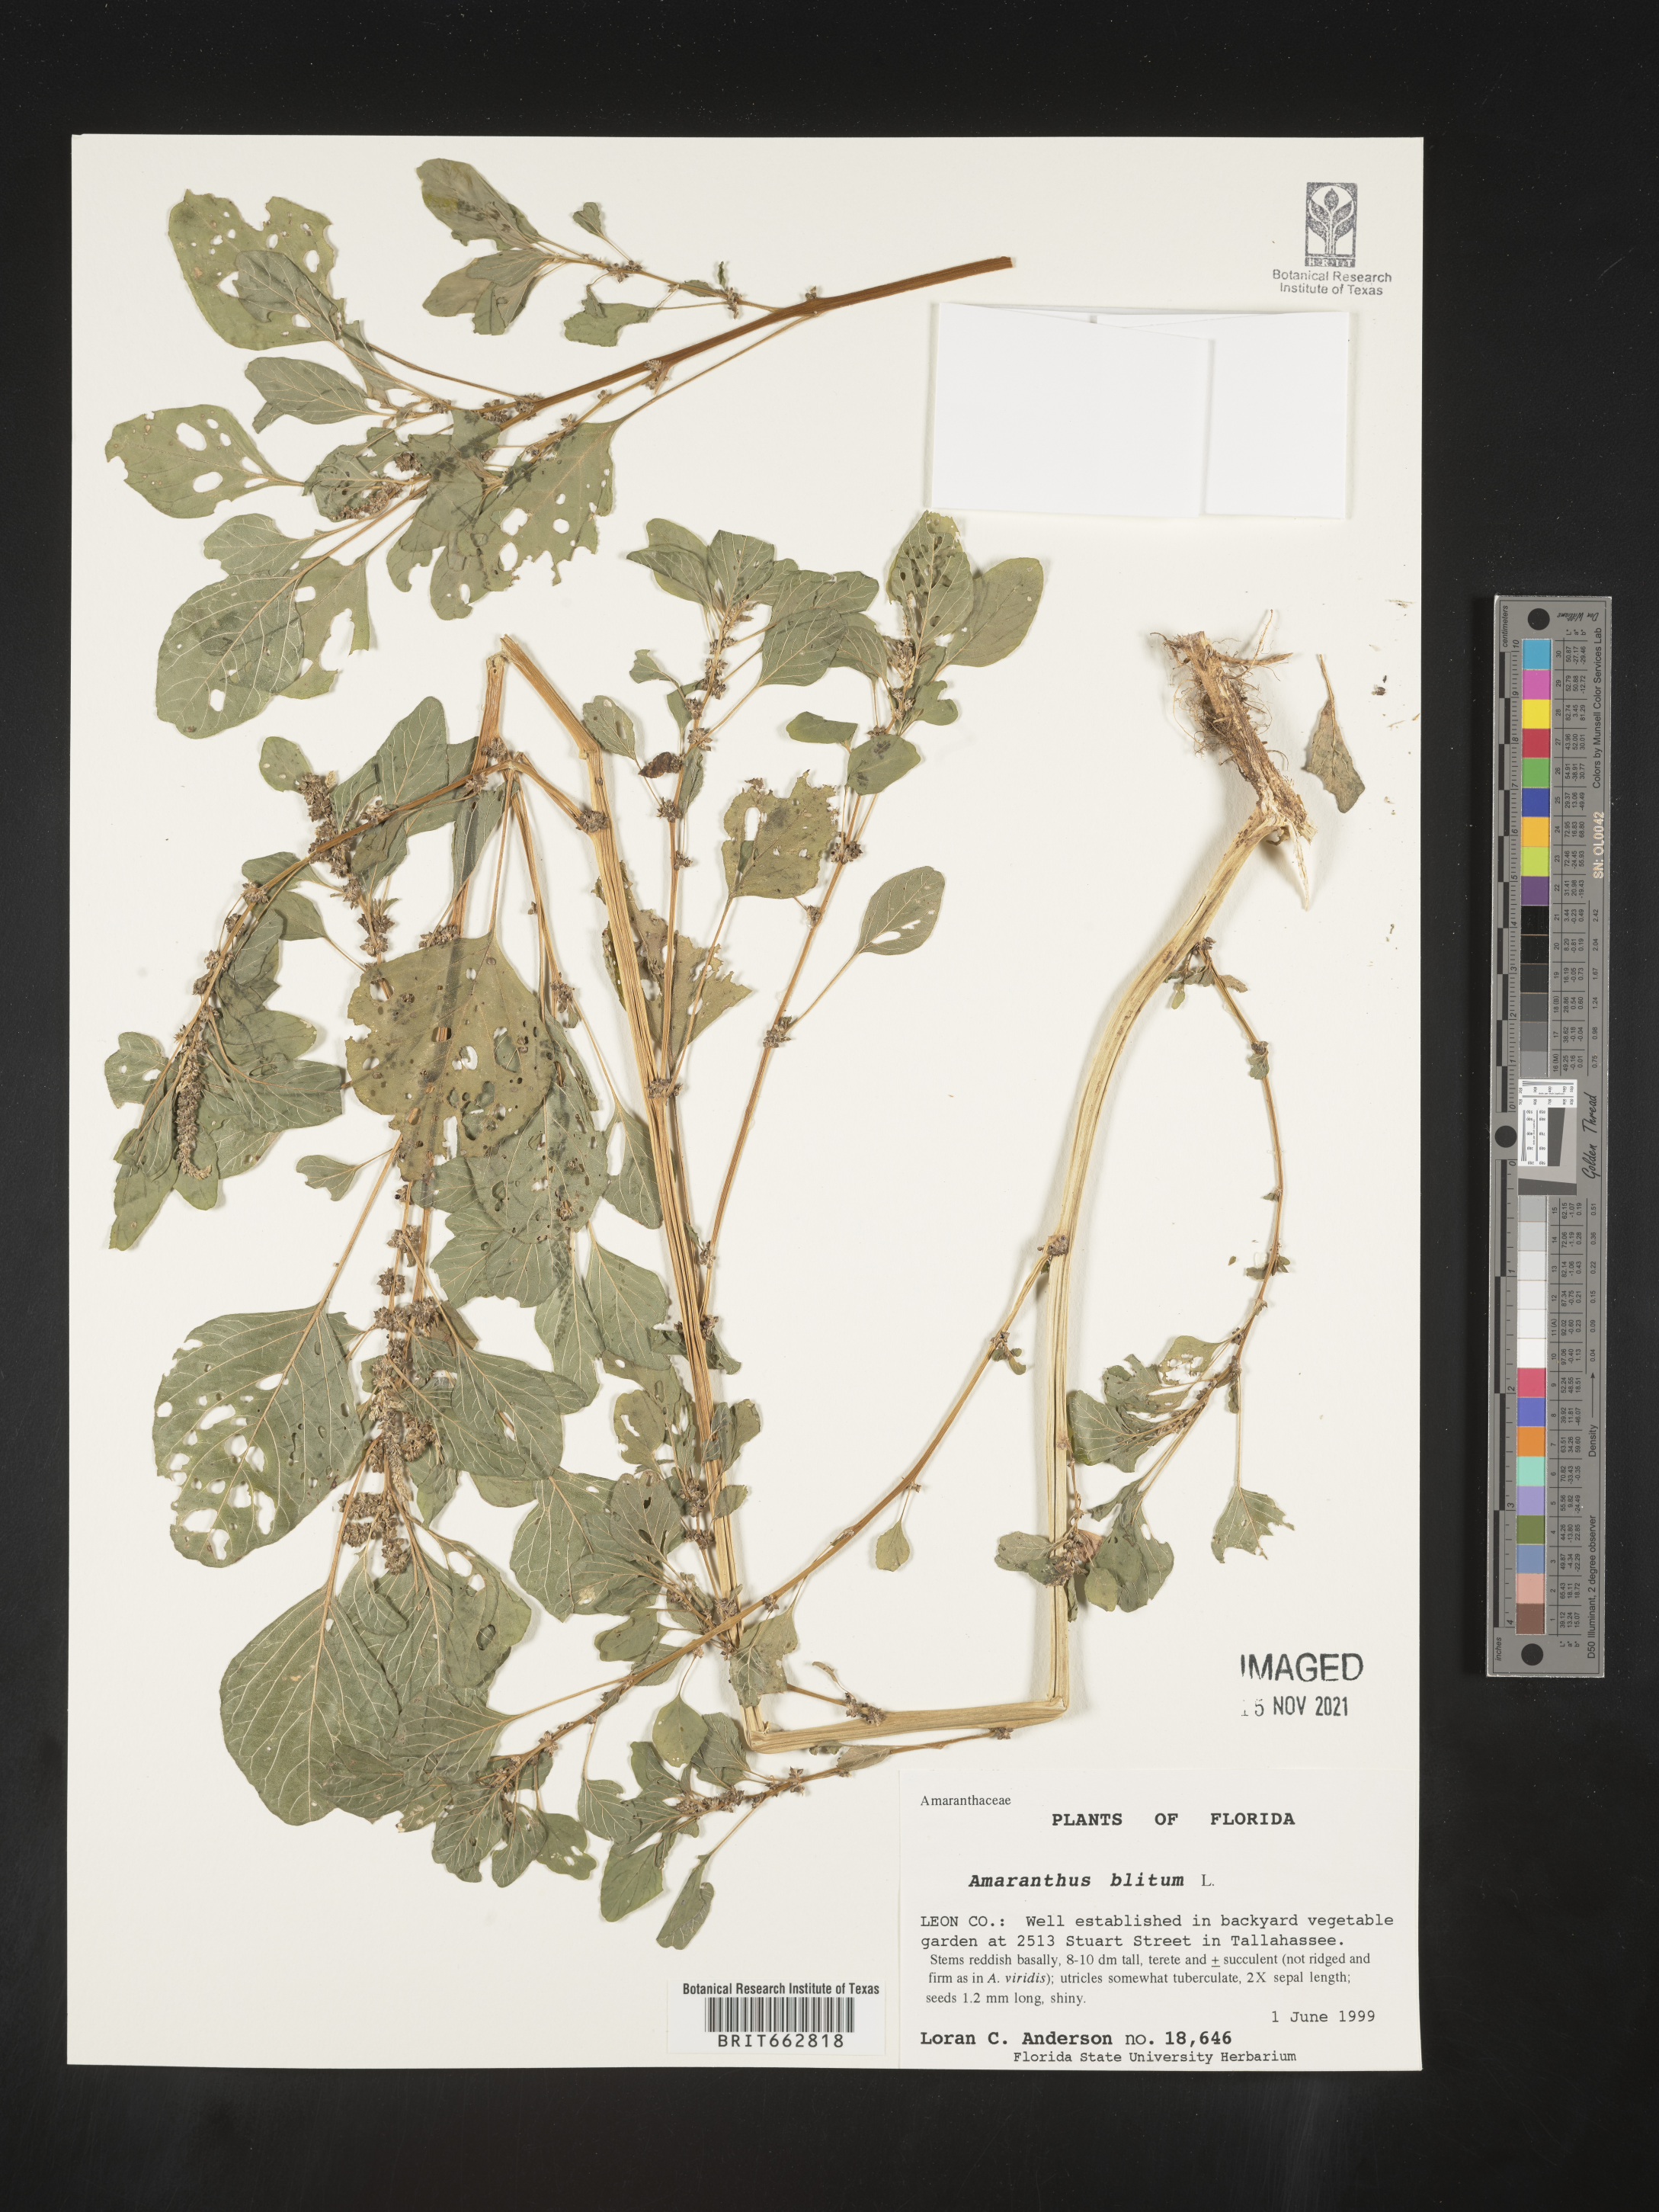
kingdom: Plantae
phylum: Tracheophyta
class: Magnoliopsida
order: Caryophyllales
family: Amaranthaceae
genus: Amaranthus
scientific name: Amaranthus blitum
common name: Purple amaranth
